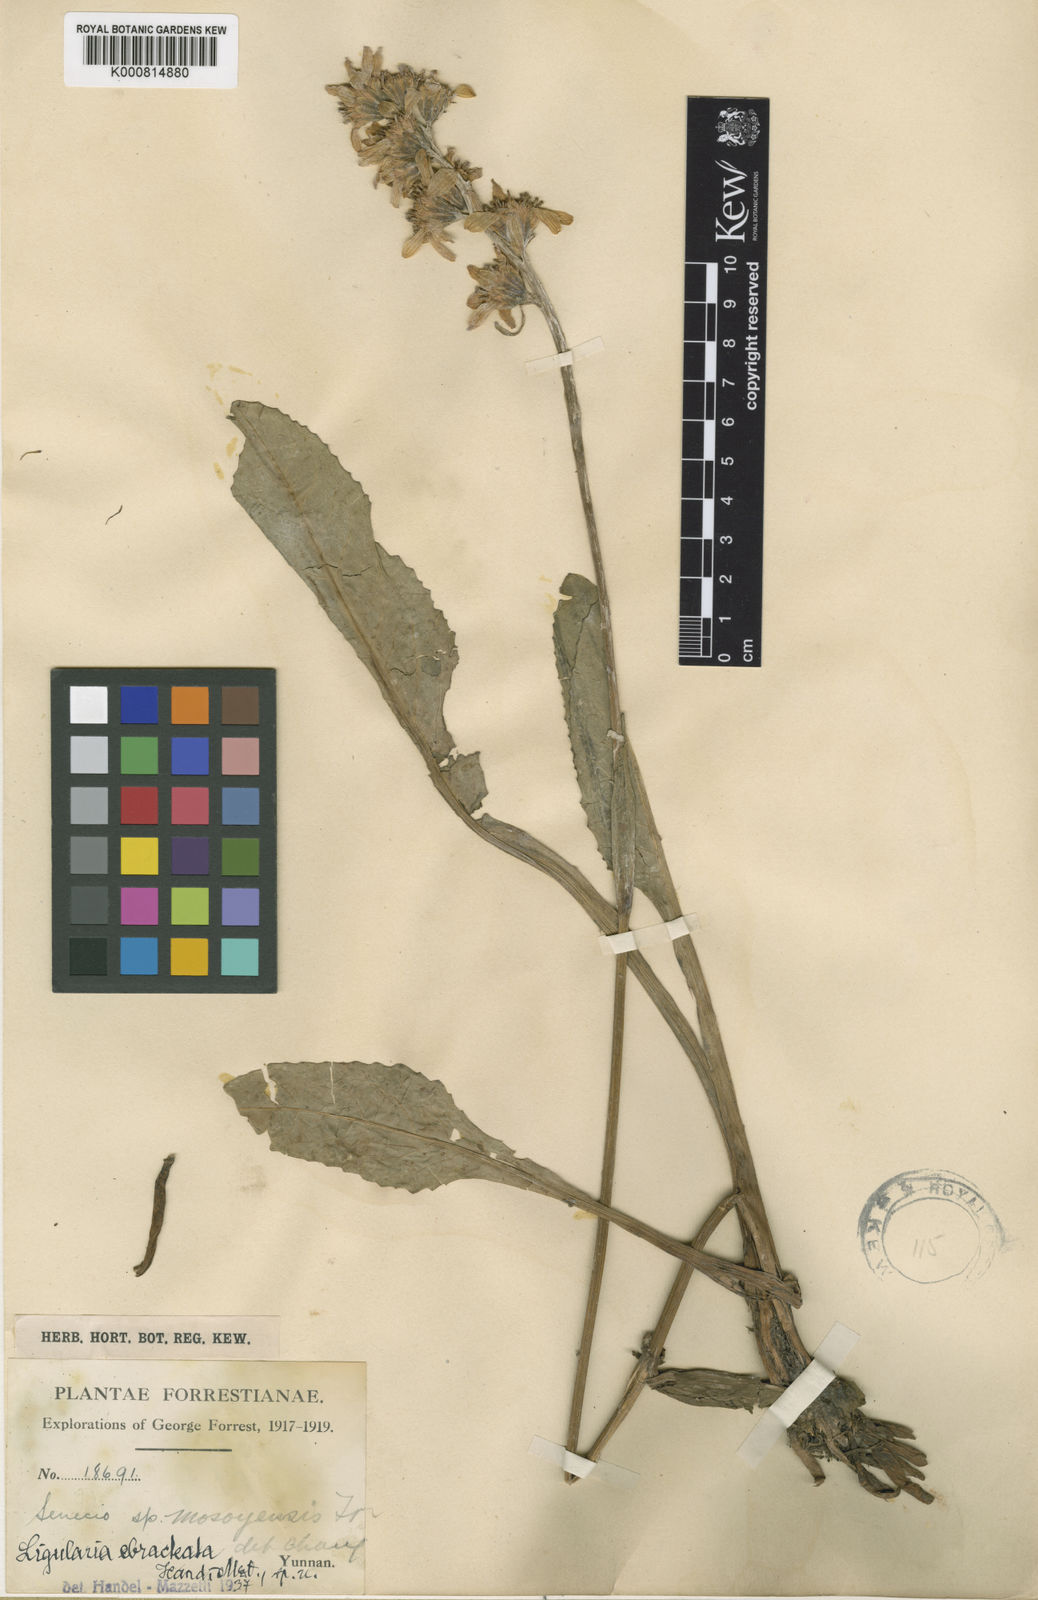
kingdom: Plantae
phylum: Tracheophyta
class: Magnoliopsida
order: Asterales
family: Asteraceae
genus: Ligularia
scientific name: Ligularia longifolia
